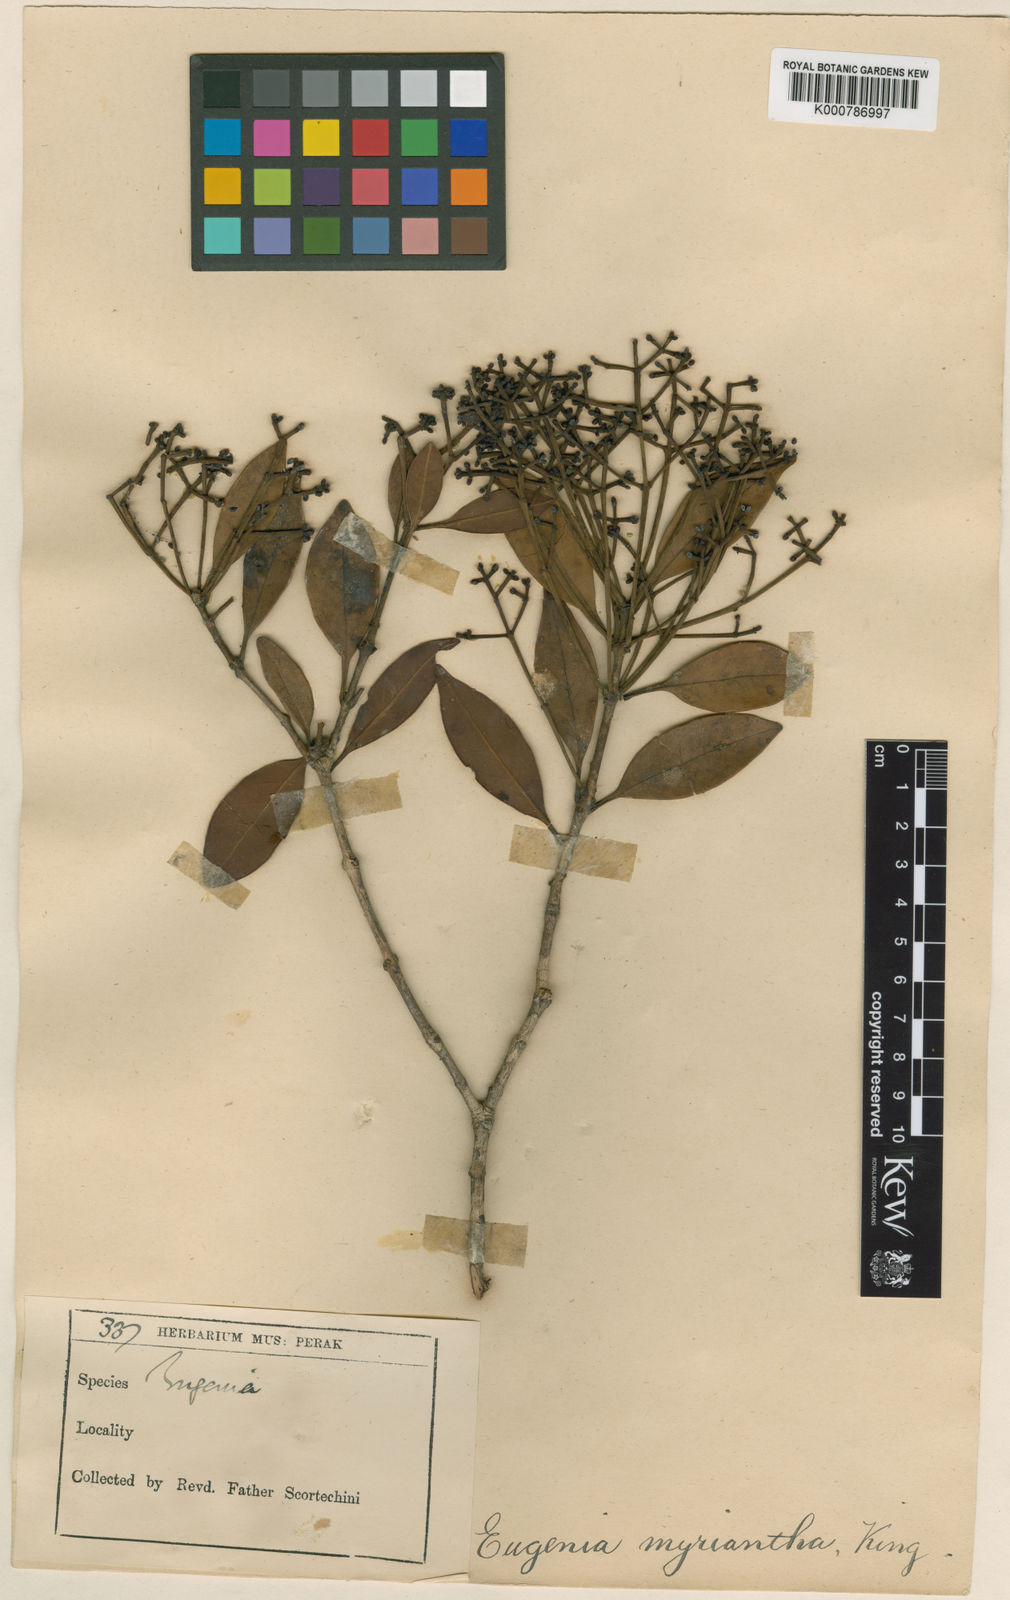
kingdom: Plantae
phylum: Tracheophyta
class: Magnoliopsida
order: Myrtales
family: Myrtaceae
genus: Syzygium
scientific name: Syzygium myrianthum
